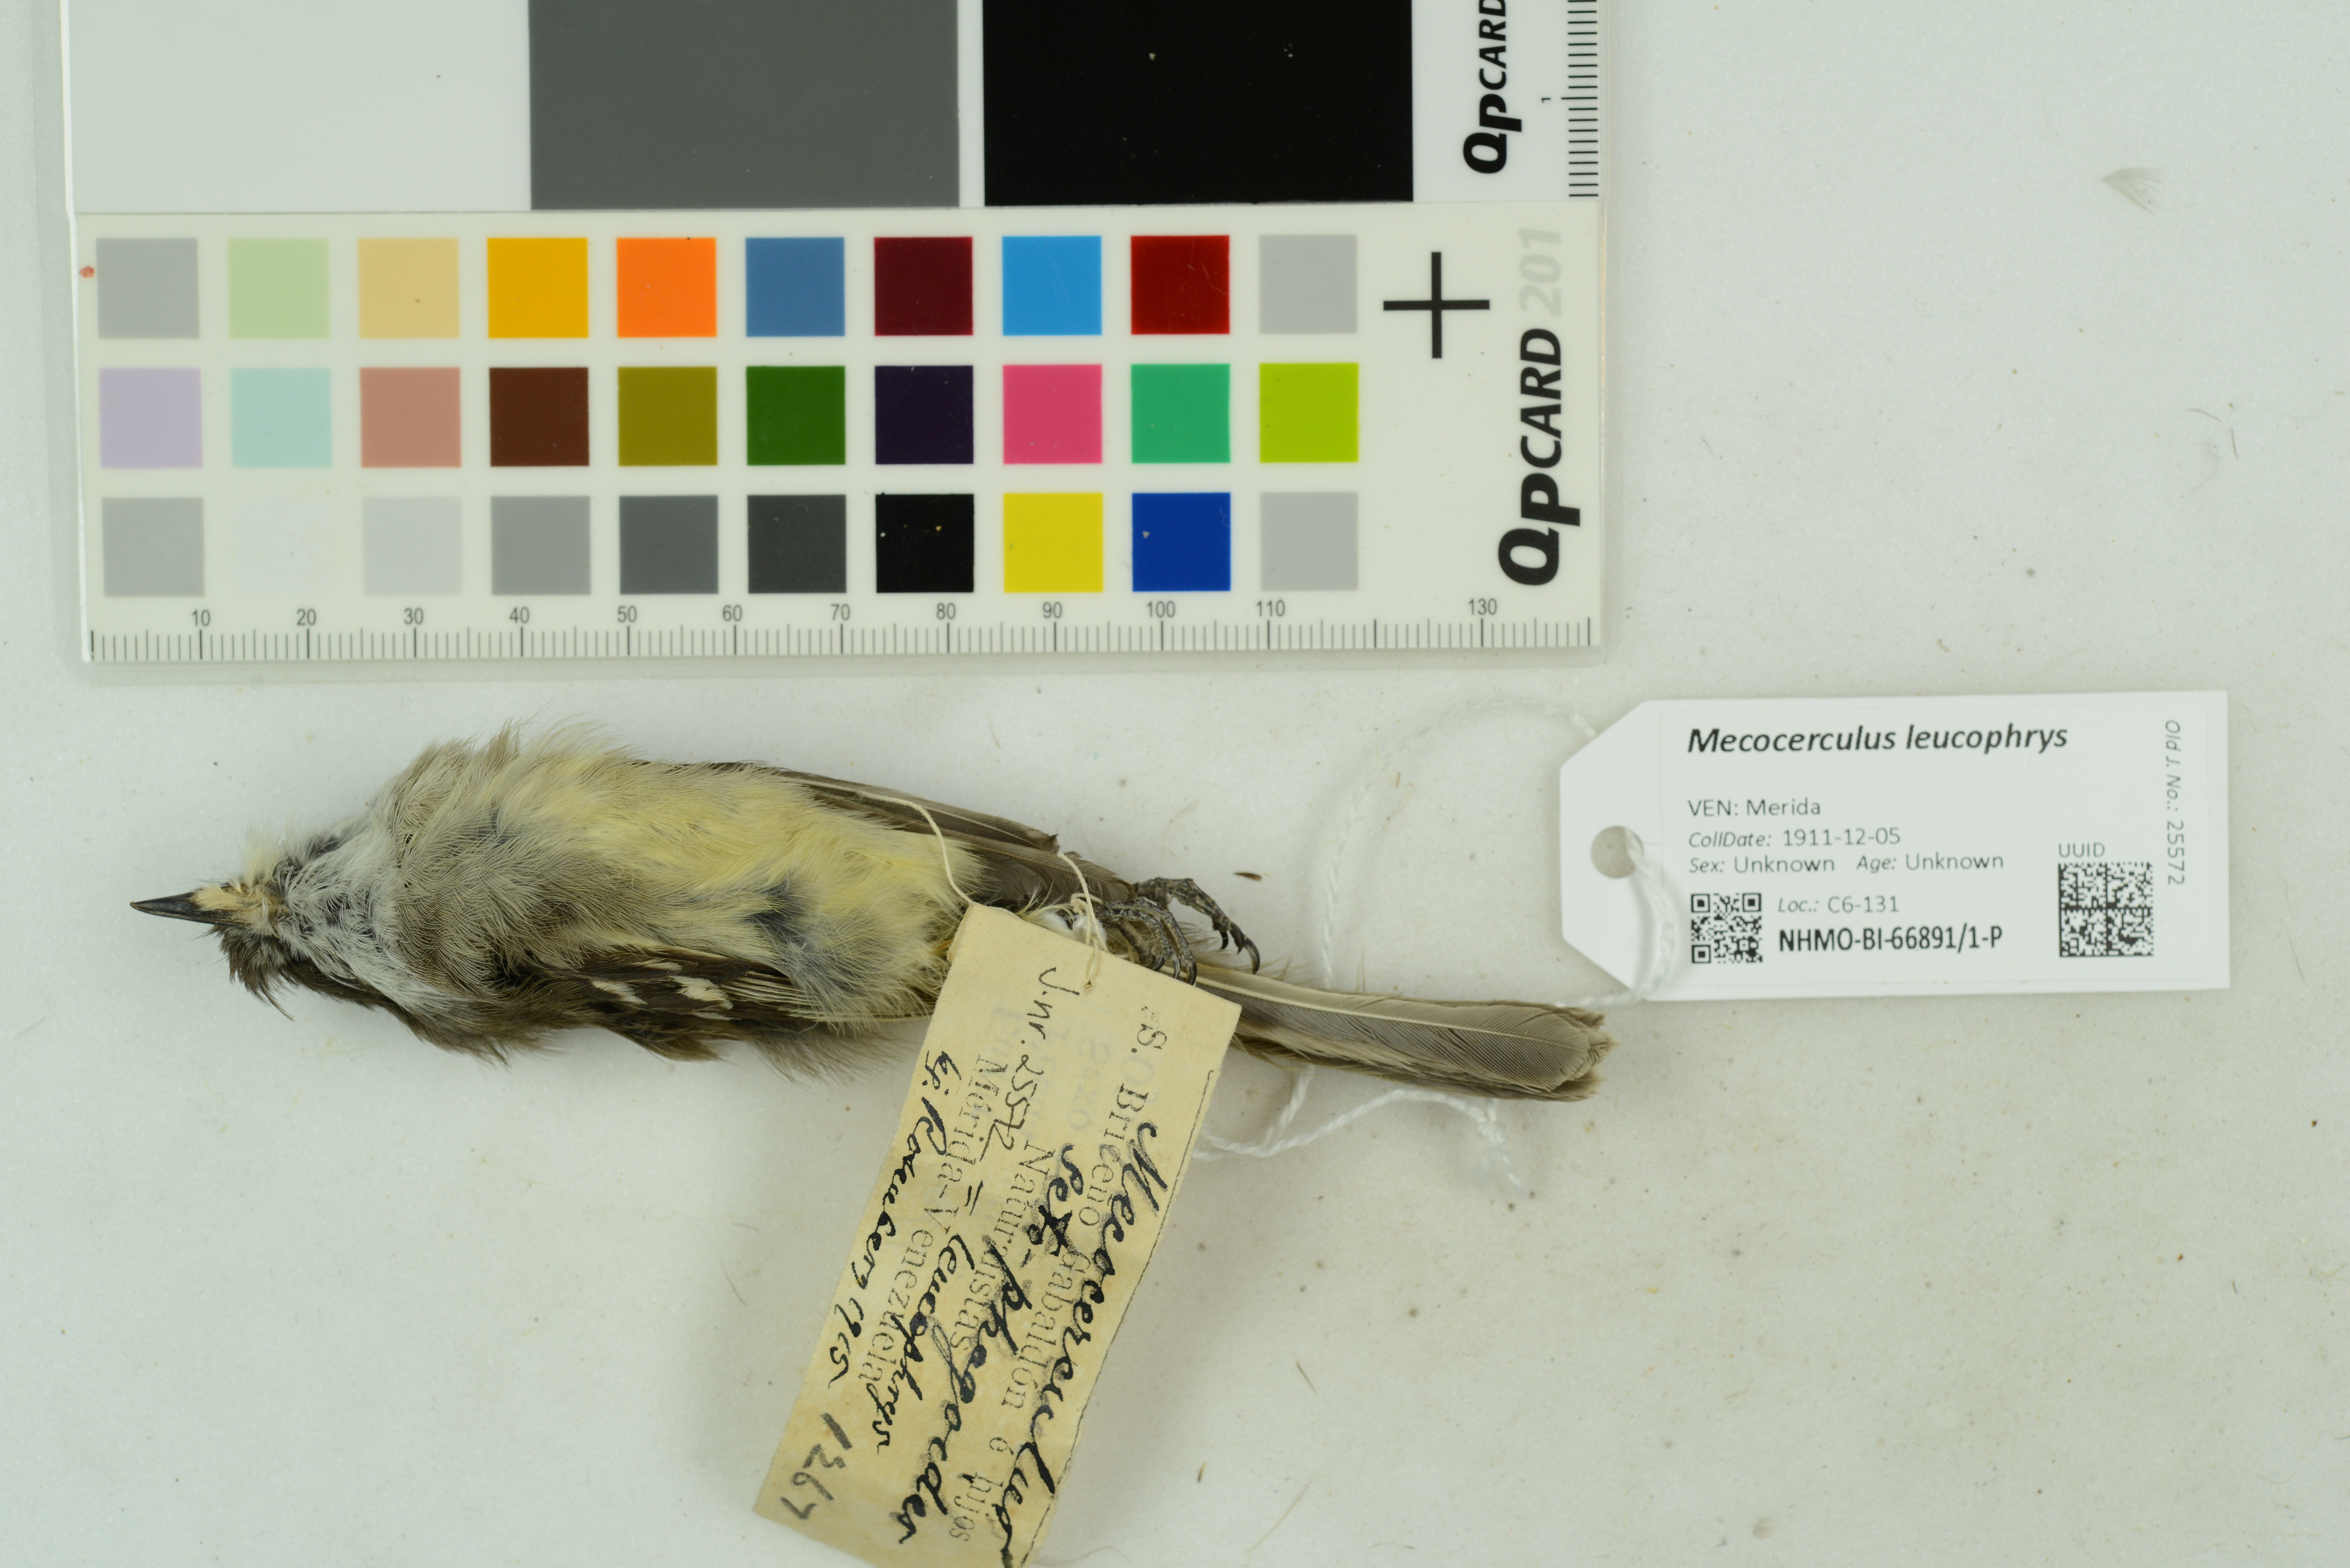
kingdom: Animalia
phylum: Chordata
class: Aves
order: Passeriformes
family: Tyrannidae
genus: Mecocerculus
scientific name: Mecocerculus leucophrys
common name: White-throated tyrannulet
